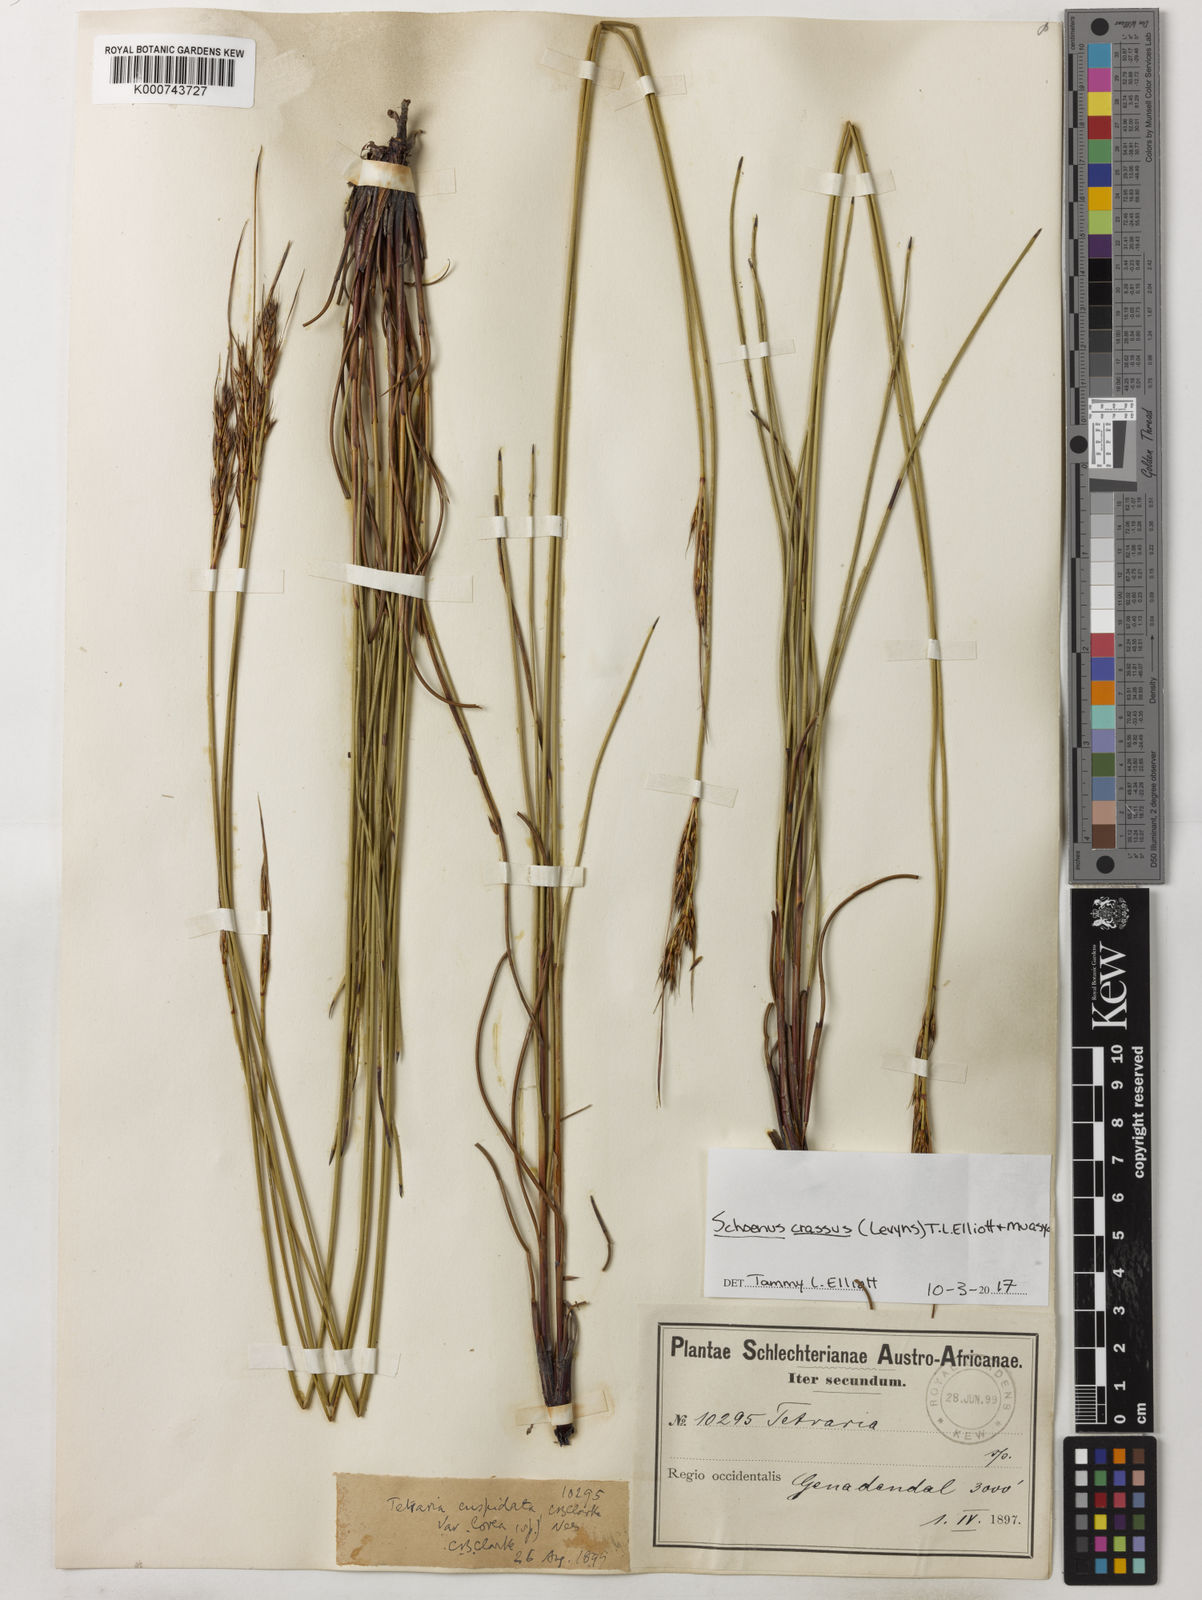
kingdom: Plantae
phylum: Tracheophyta
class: Liliopsida
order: Poales
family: Cyperaceae
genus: Schoenus
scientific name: Schoenus crassus
